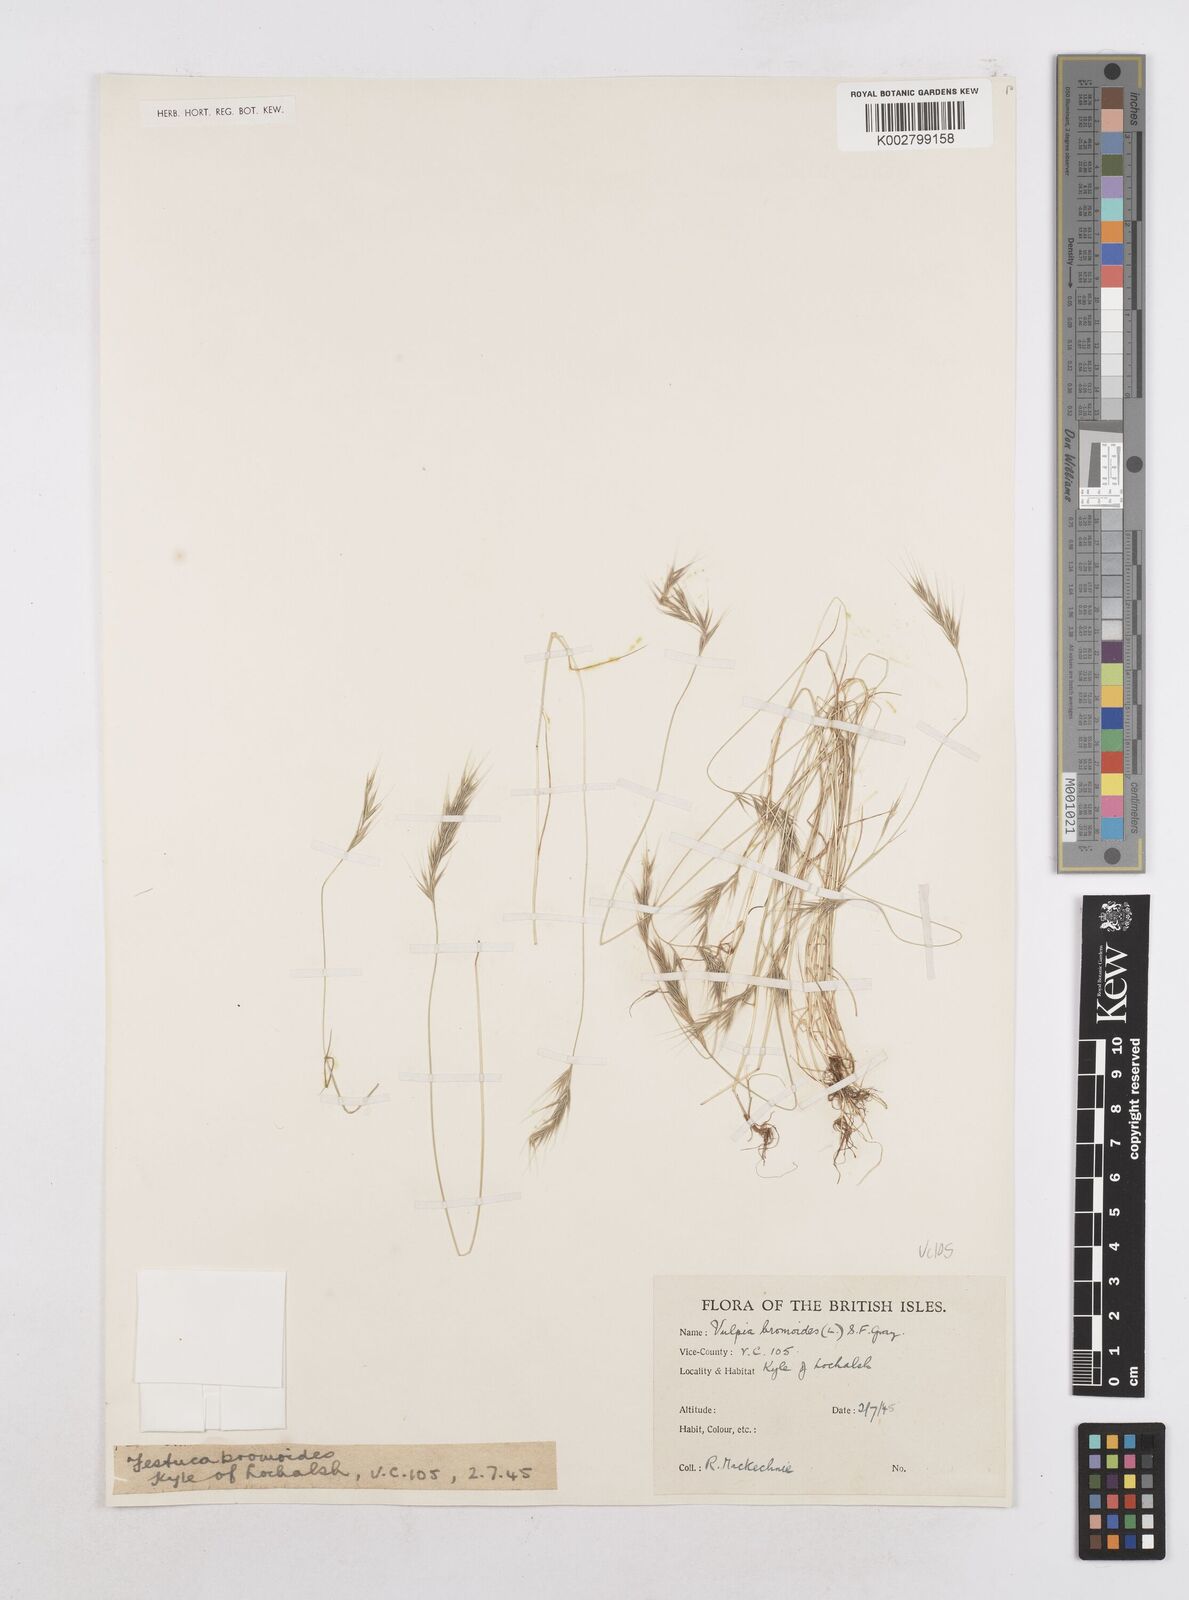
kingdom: Plantae
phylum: Tracheophyta
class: Liliopsida
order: Poales
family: Poaceae
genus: Festuca
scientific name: Festuca bromoides
